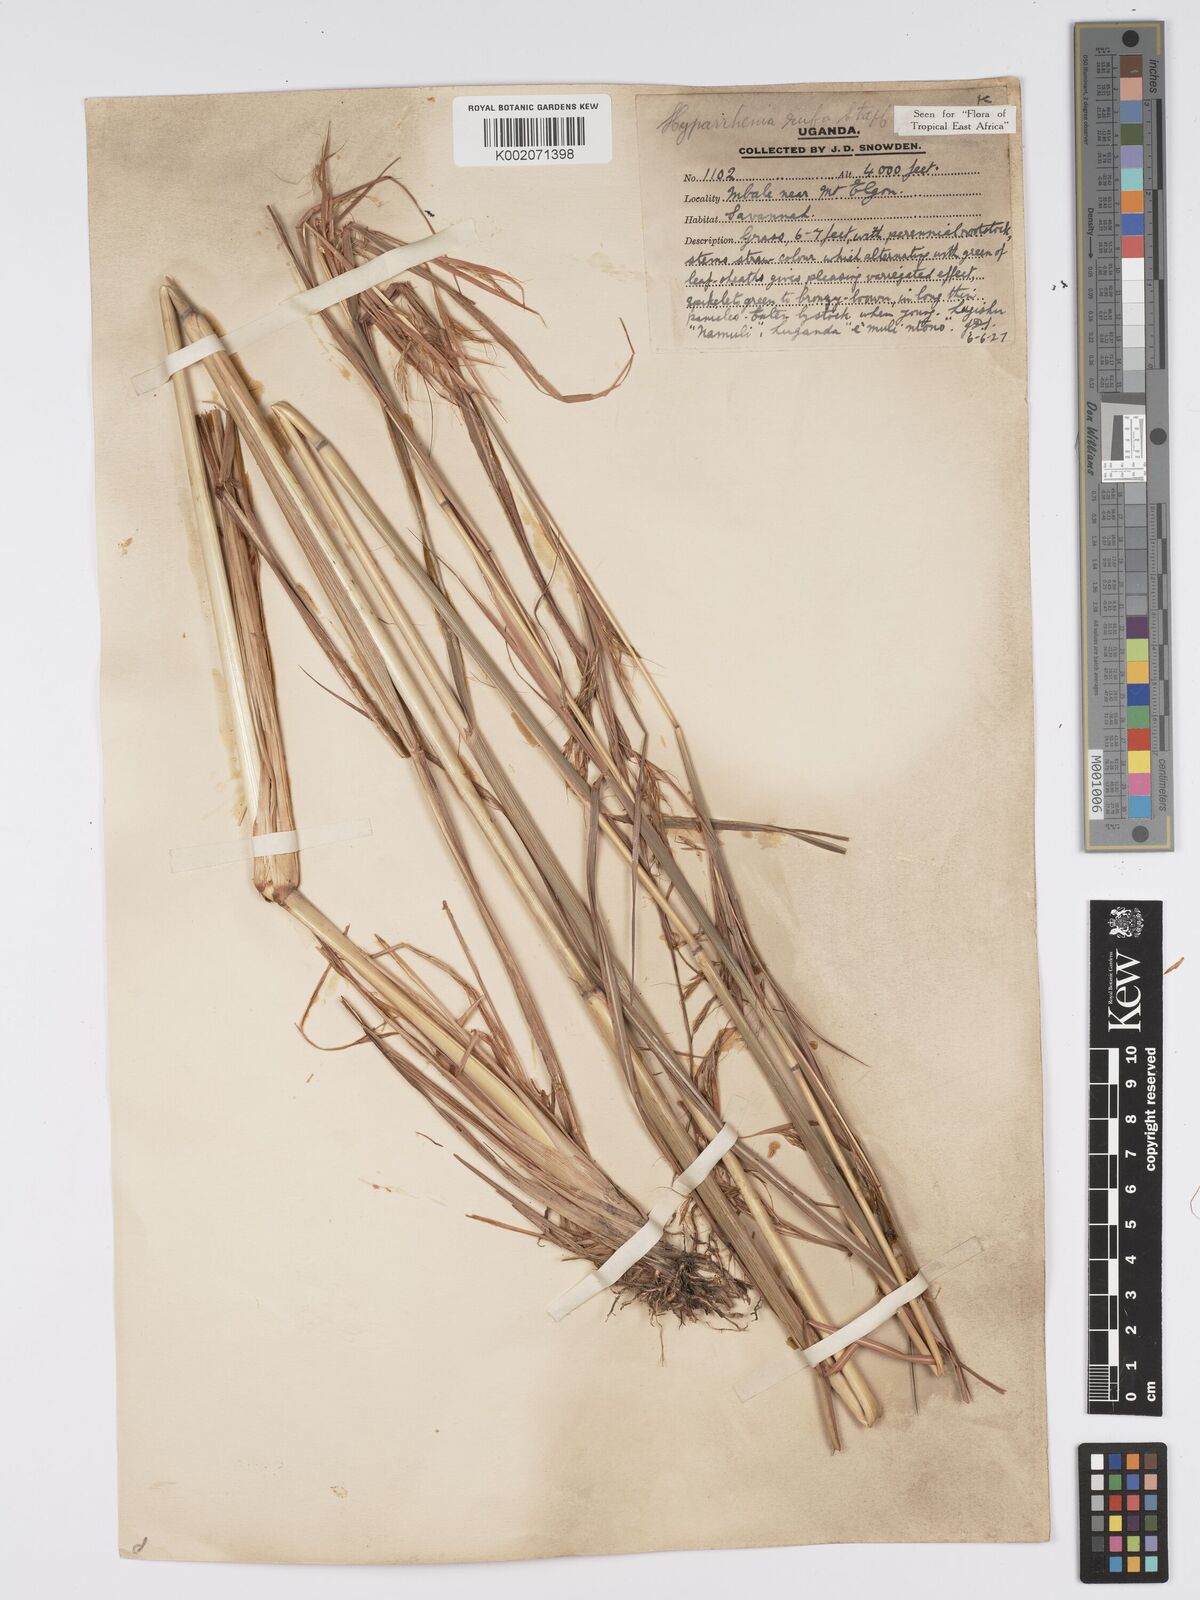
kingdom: Plantae
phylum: Tracheophyta
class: Liliopsida
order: Poales
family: Poaceae
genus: Hyparrhenia
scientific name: Hyparrhenia rufa
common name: Jaraguagrass
